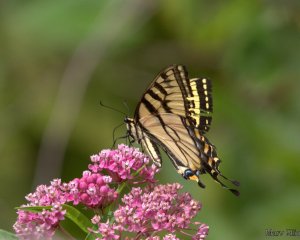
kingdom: Animalia
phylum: Arthropoda
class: Insecta
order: Lepidoptera
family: Papilionidae
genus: Pterourus
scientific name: Pterourus
